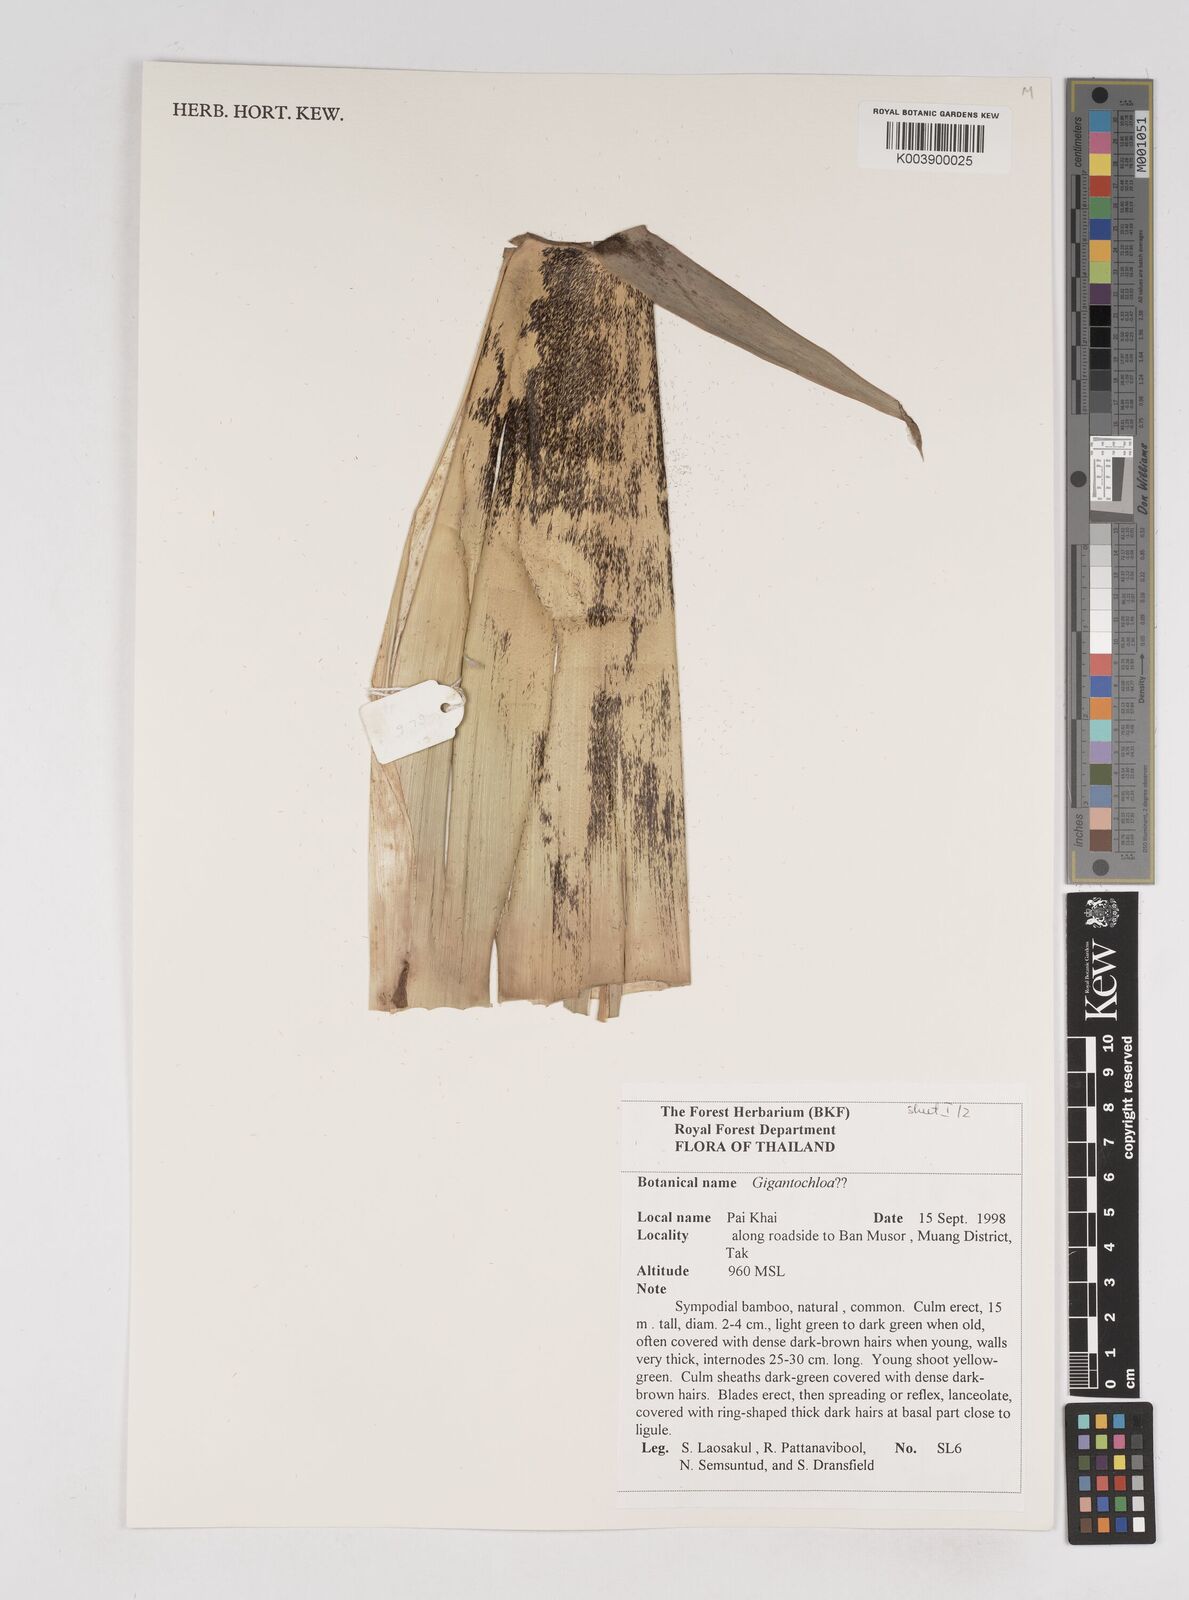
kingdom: Plantae
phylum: Tracheophyta
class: Liliopsida
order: Poales
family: Poaceae
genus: Gigantochloa
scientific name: Gigantochloa
